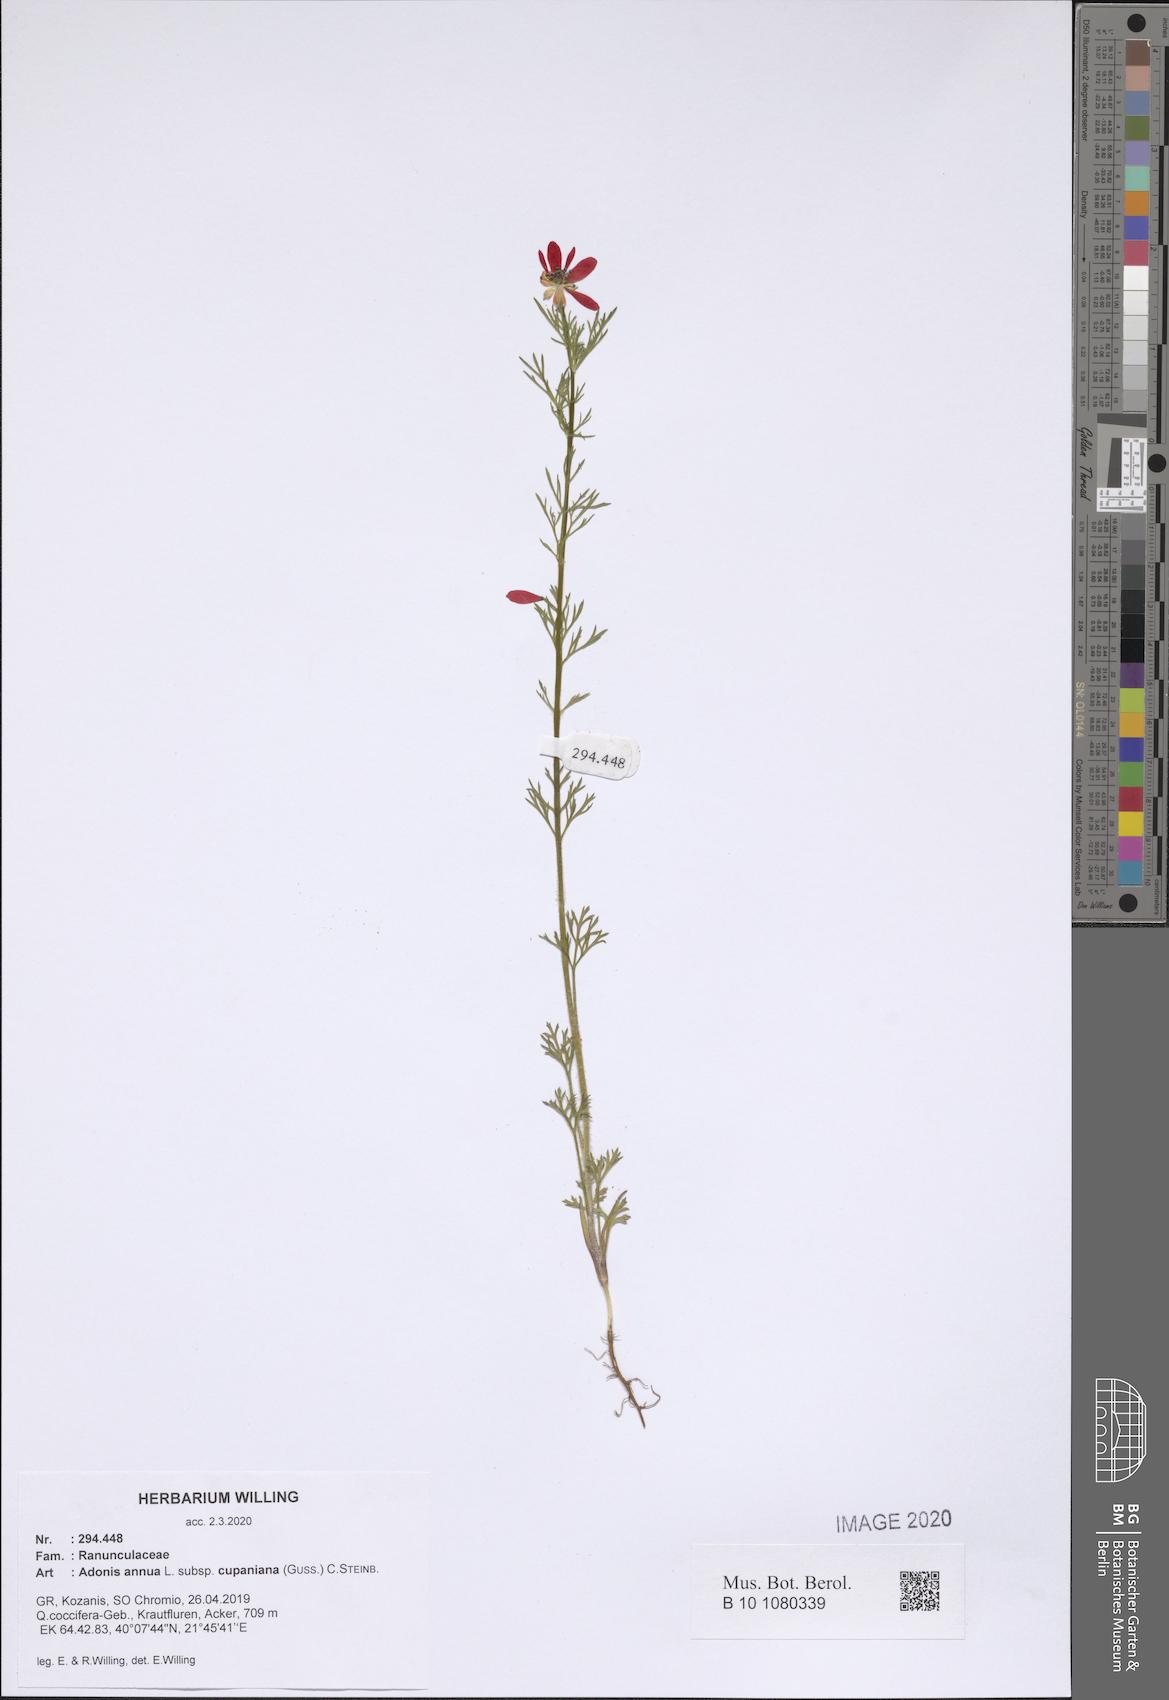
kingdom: Plantae
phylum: Tracheophyta
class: Magnoliopsida
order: Ranunculales
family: Ranunculaceae
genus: Adonis
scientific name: Adonis annua
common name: Pheasant's-eye
